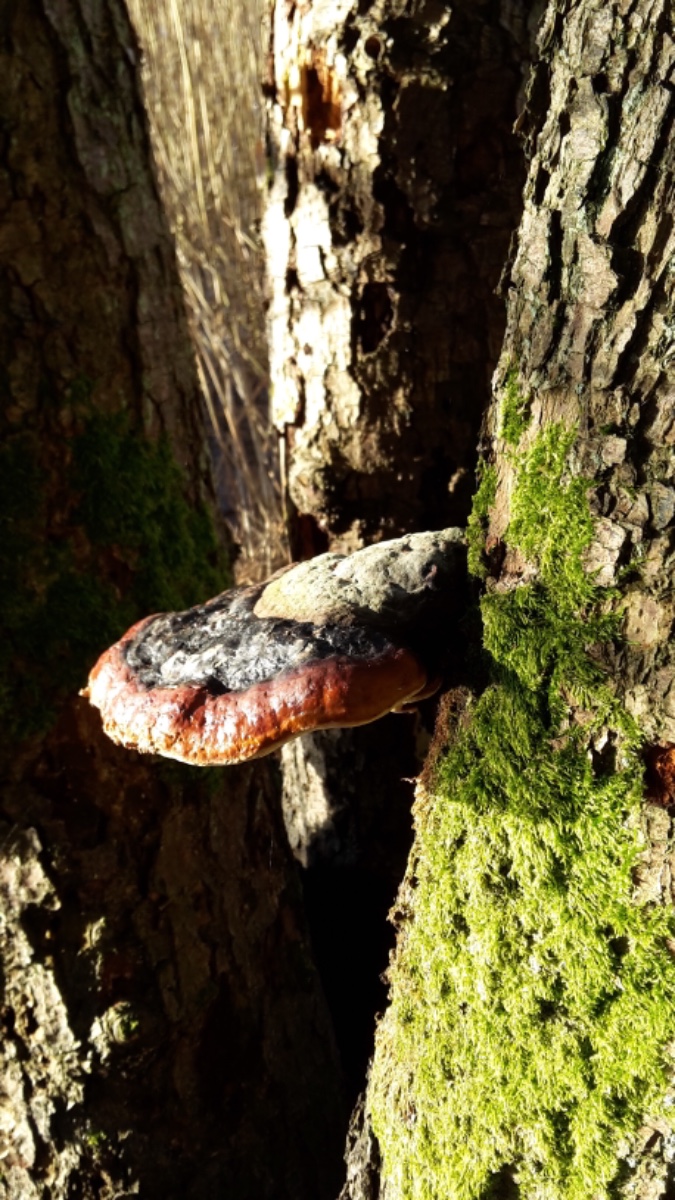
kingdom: Fungi
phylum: Basidiomycota
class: Agaricomycetes
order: Polyporales
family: Fomitopsidaceae
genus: Fomitopsis
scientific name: Fomitopsis pinicola
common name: randbæltet hovporesvamp
